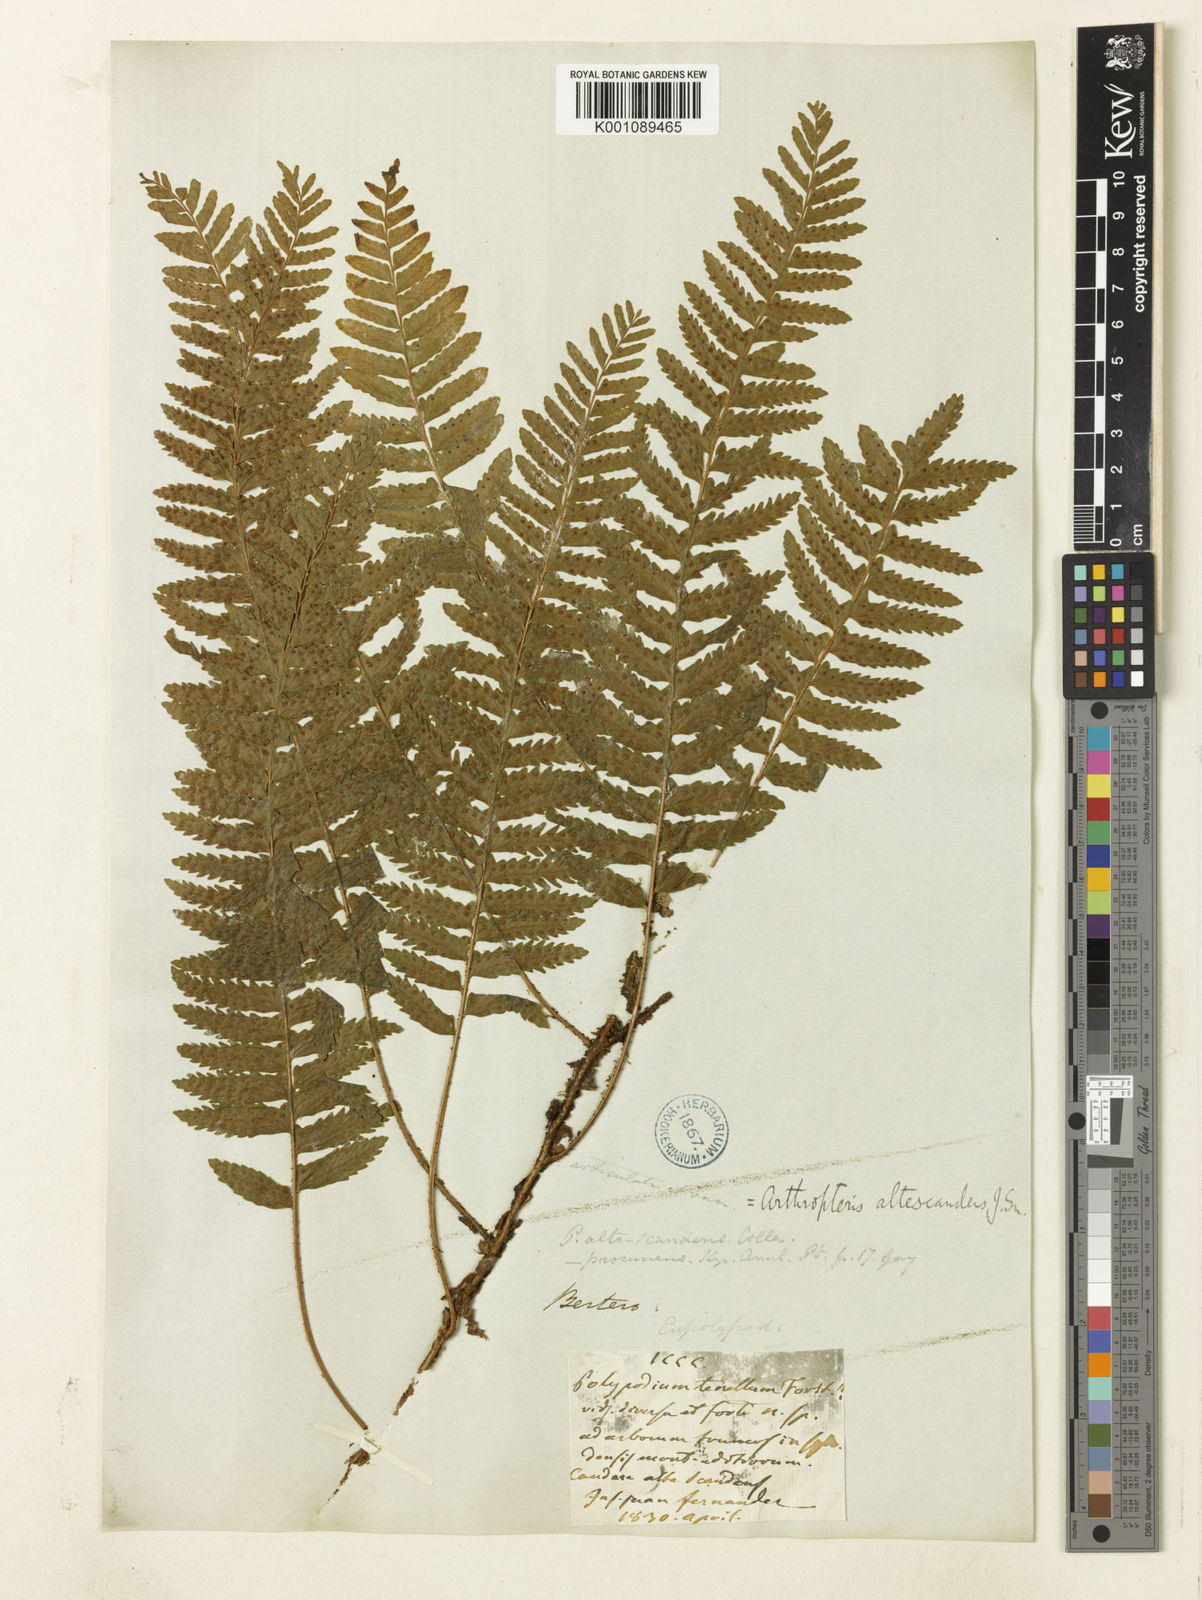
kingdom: Plantae
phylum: Tracheophyta
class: Polypodiopsida
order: Polypodiales
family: Tectariaceae
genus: Arthropteris
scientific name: Arthropteris altescandens
